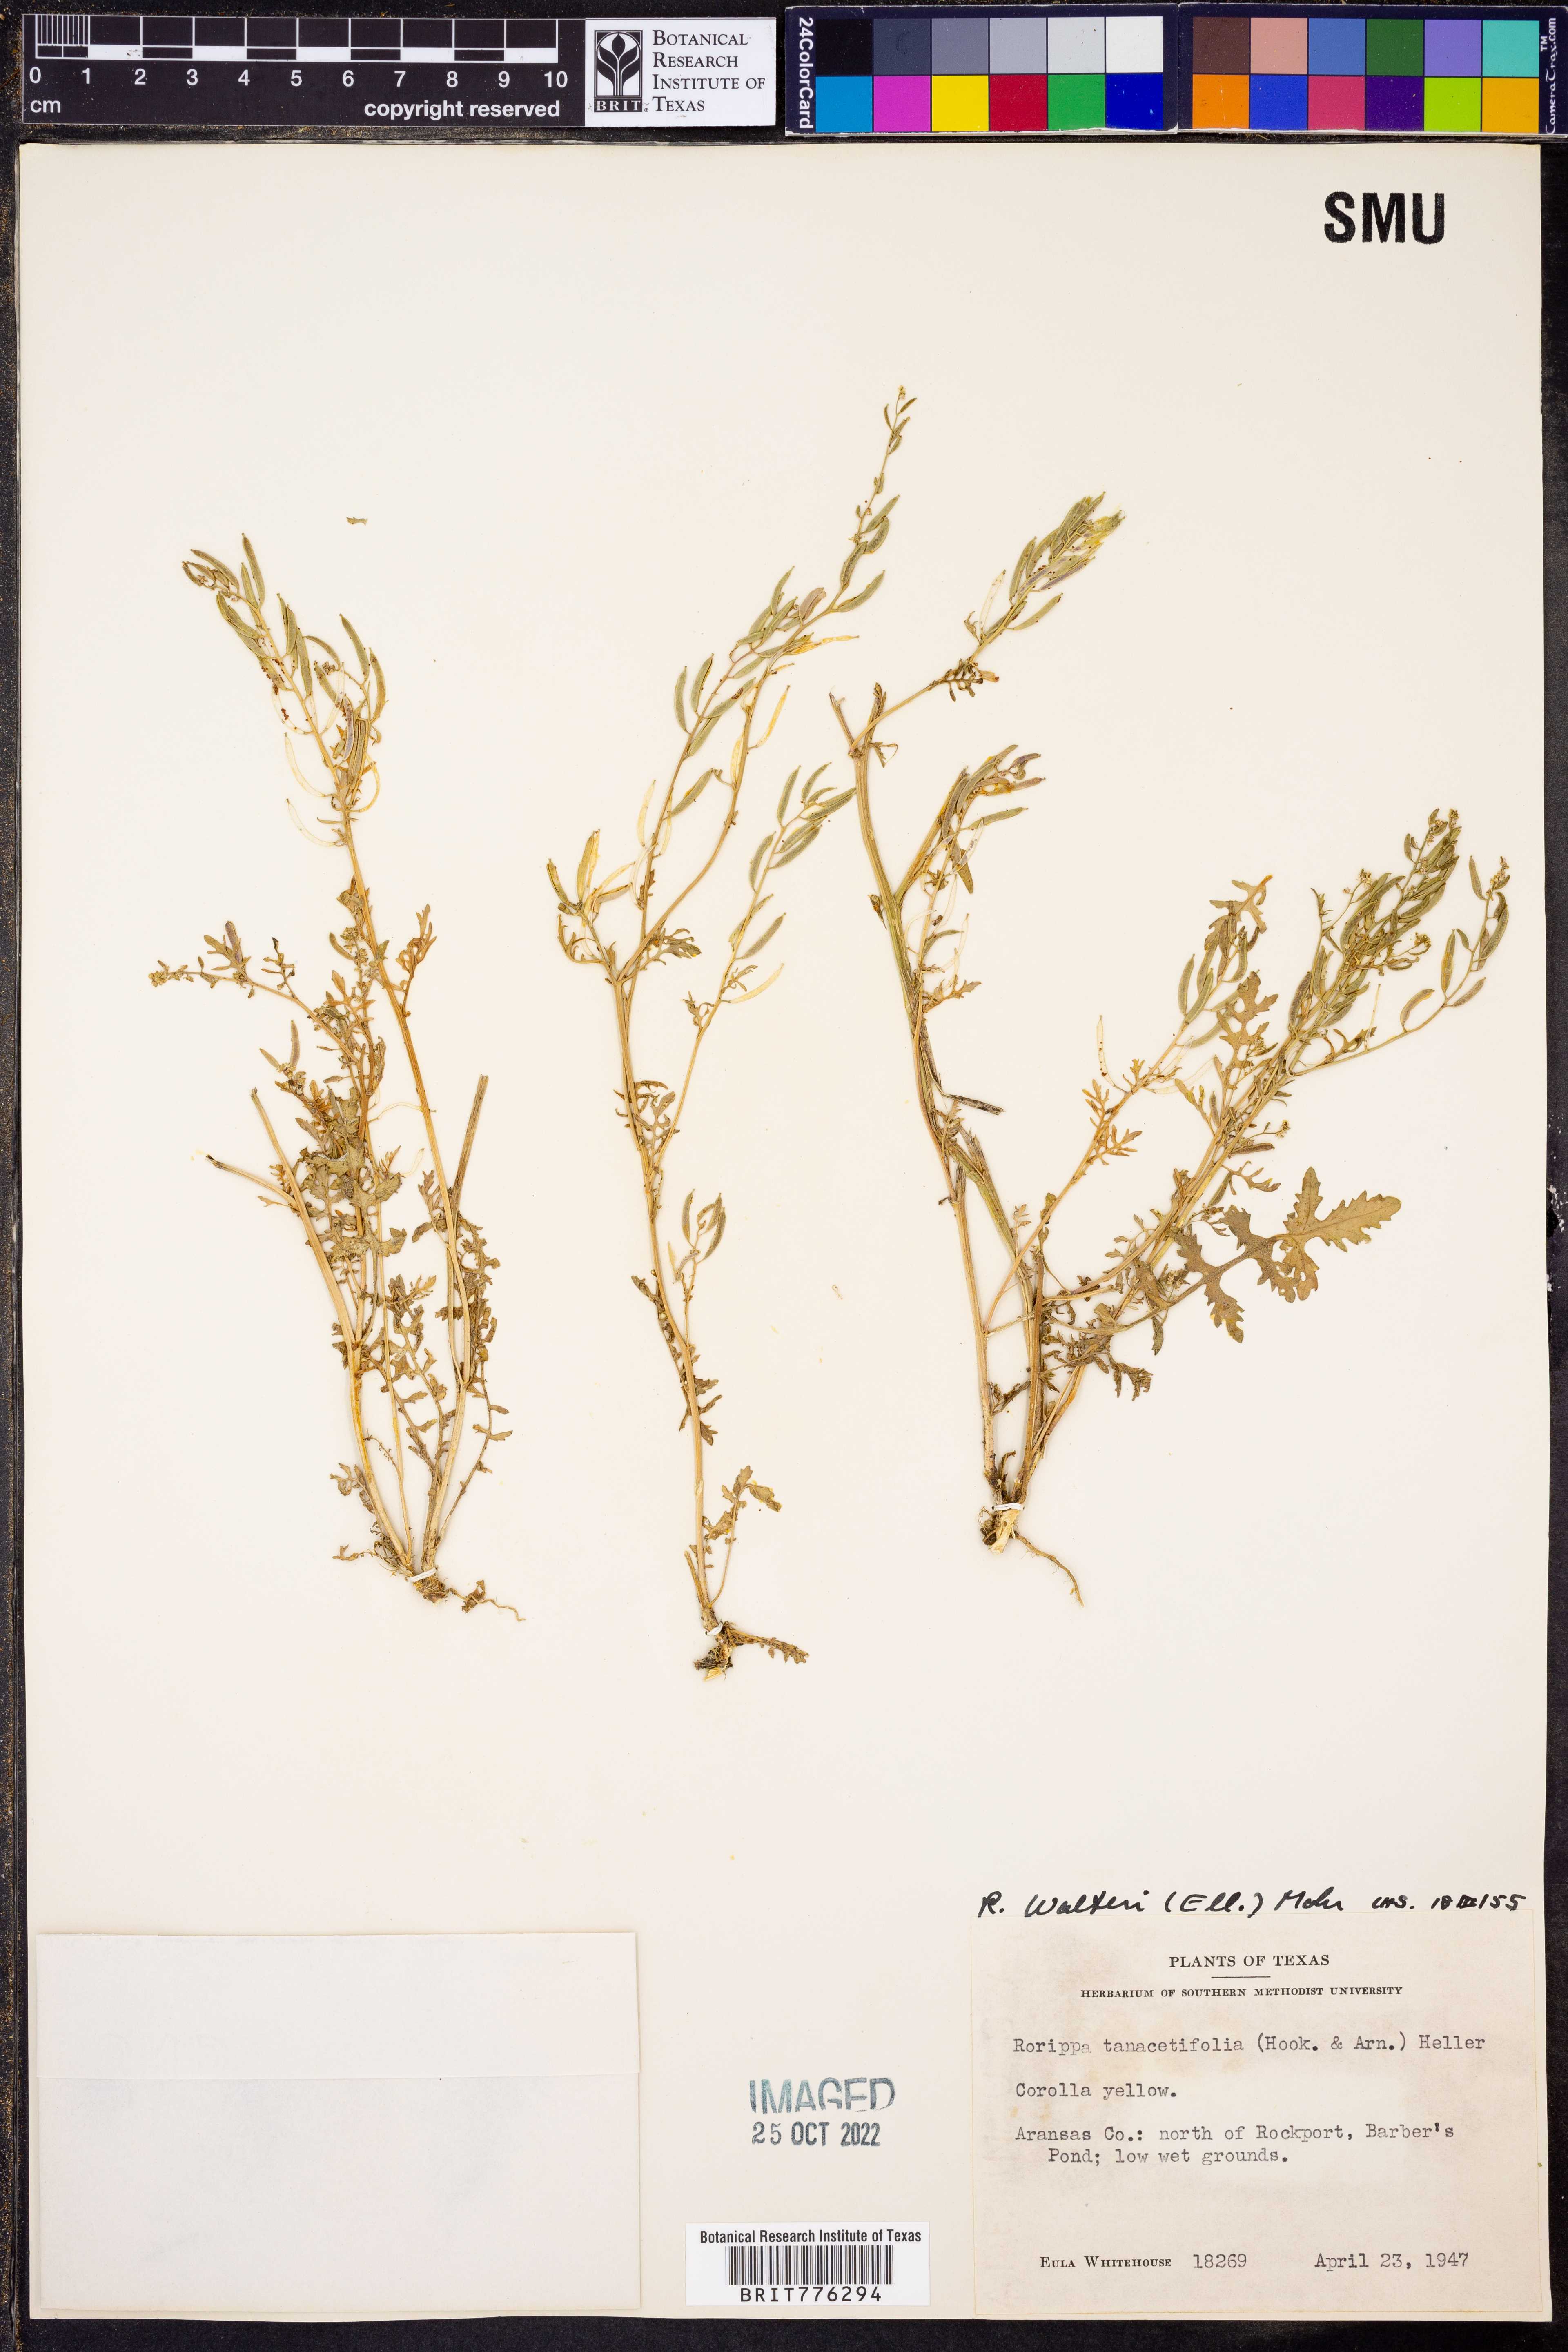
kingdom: Plantae
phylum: Tracheophyta
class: Magnoliopsida
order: Brassicales
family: Brassicaceae
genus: Rorippa
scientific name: Rorippa teres
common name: Southern marsh yellowcress
